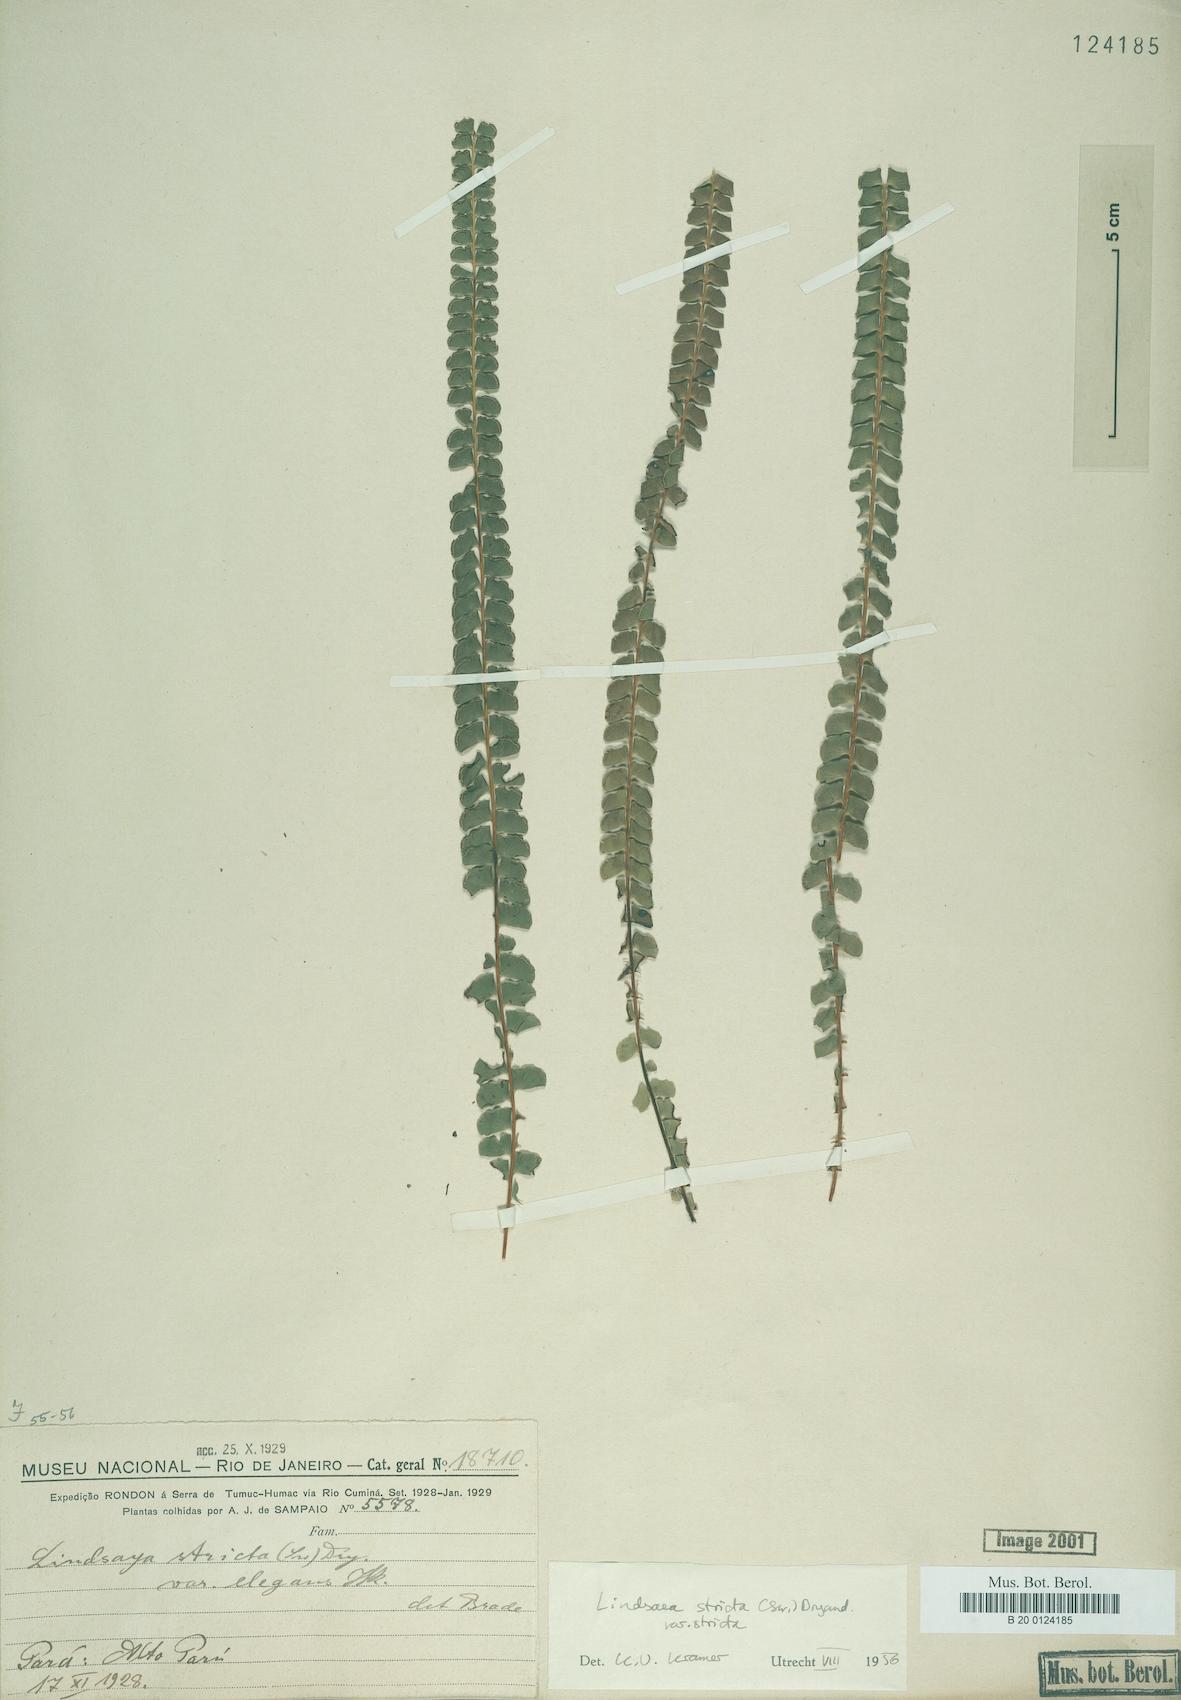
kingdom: Plantae
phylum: Tracheophyta
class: Polypodiopsida
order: Polypodiales
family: Lindsaeaceae
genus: Lindsaea
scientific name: Lindsaea stricta
